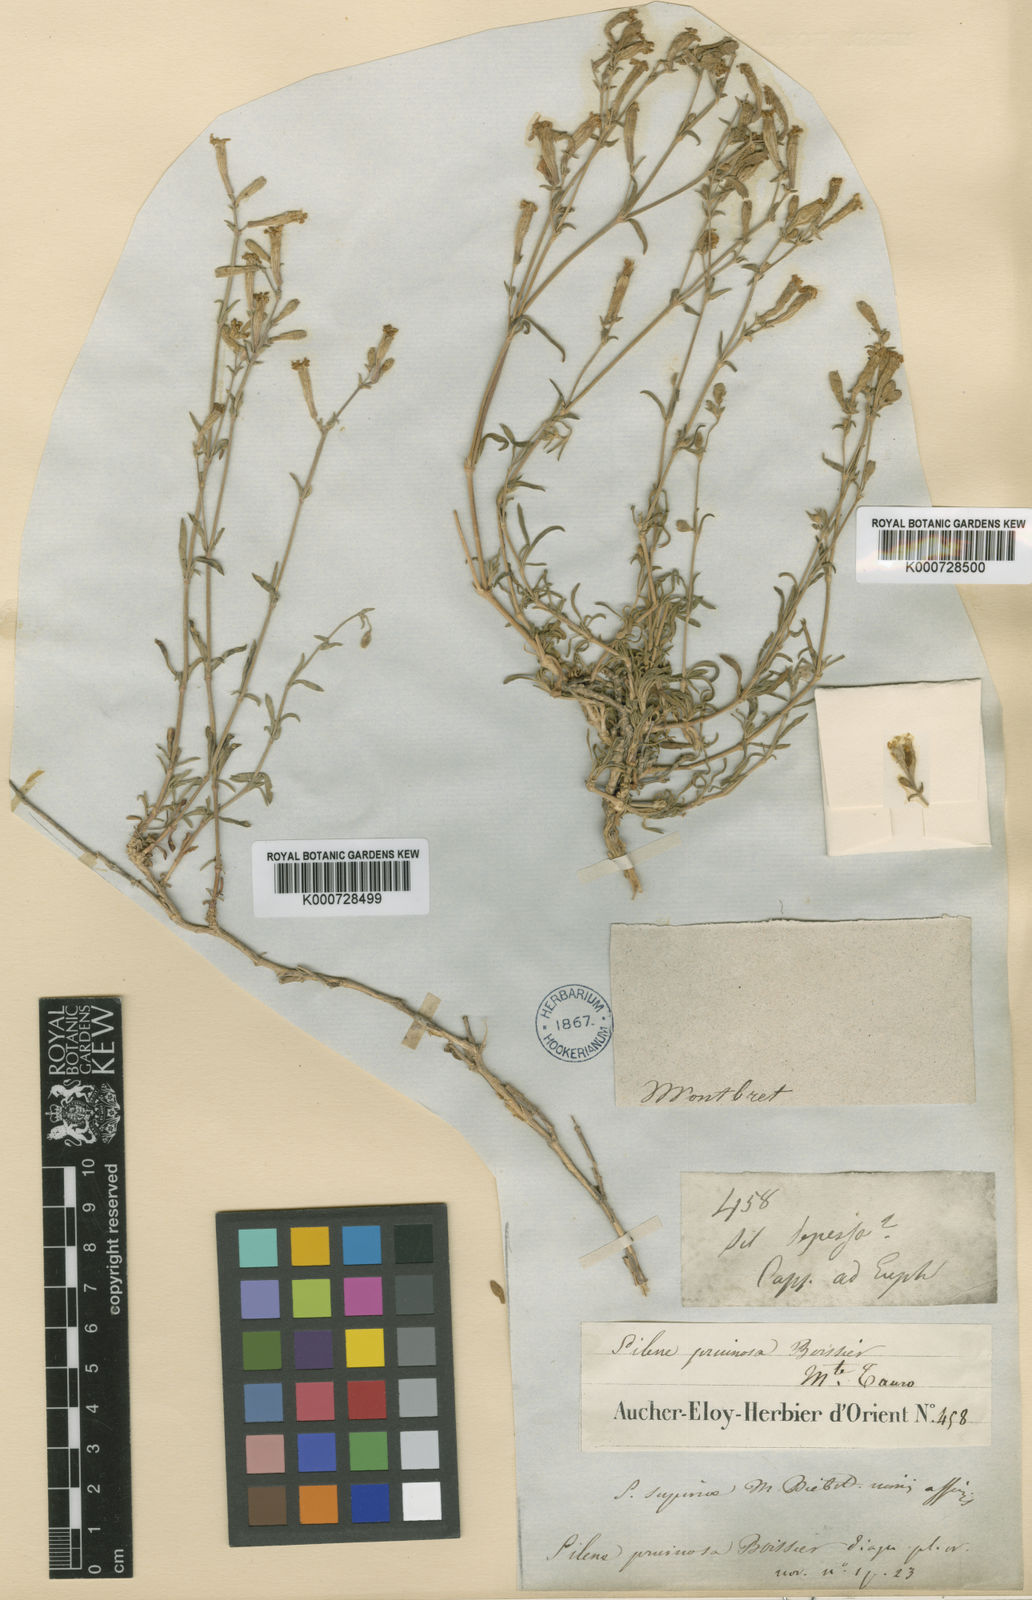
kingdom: Plantae
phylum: Tracheophyta
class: Magnoliopsida
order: Caryophyllales
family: Caryophyllaceae
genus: Silene
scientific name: Silene argentea
